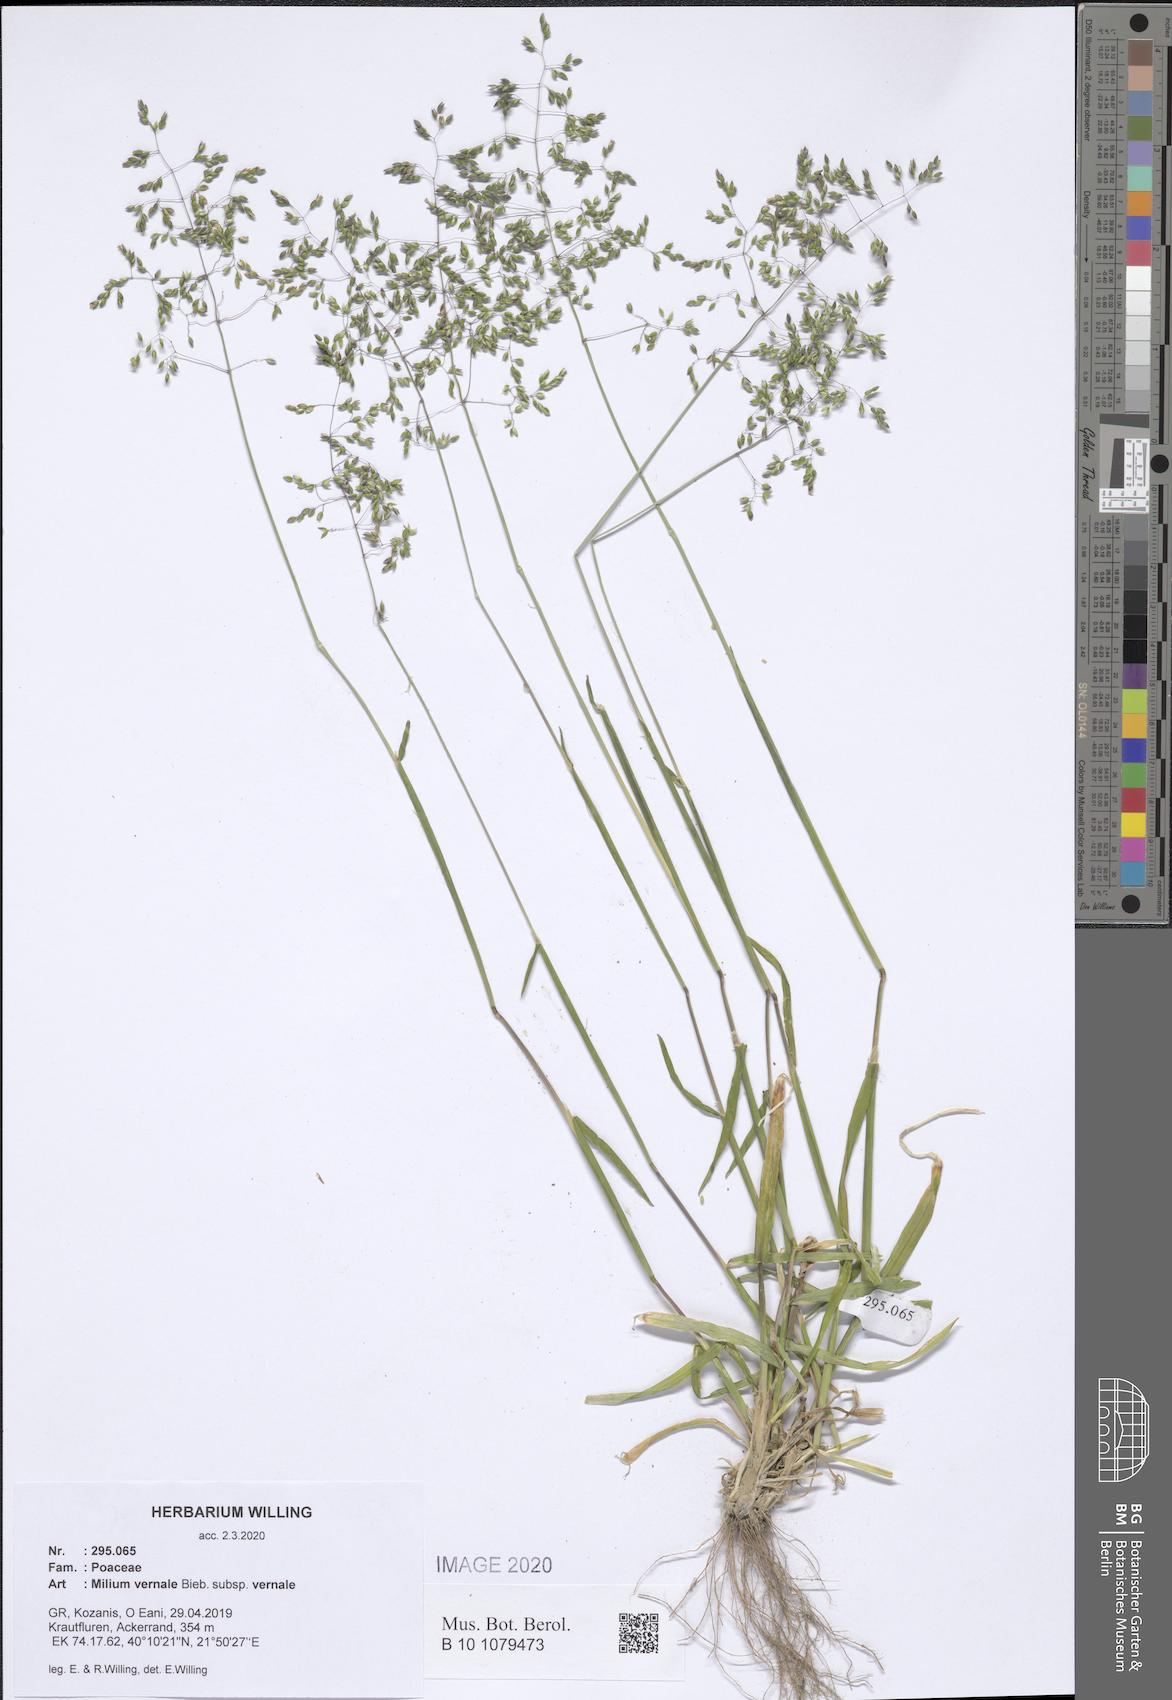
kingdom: Plantae
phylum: Tracheophyta
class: Liliopsida
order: Poales
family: Poaceae
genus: Milium
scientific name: Milium vernale
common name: Early millet
